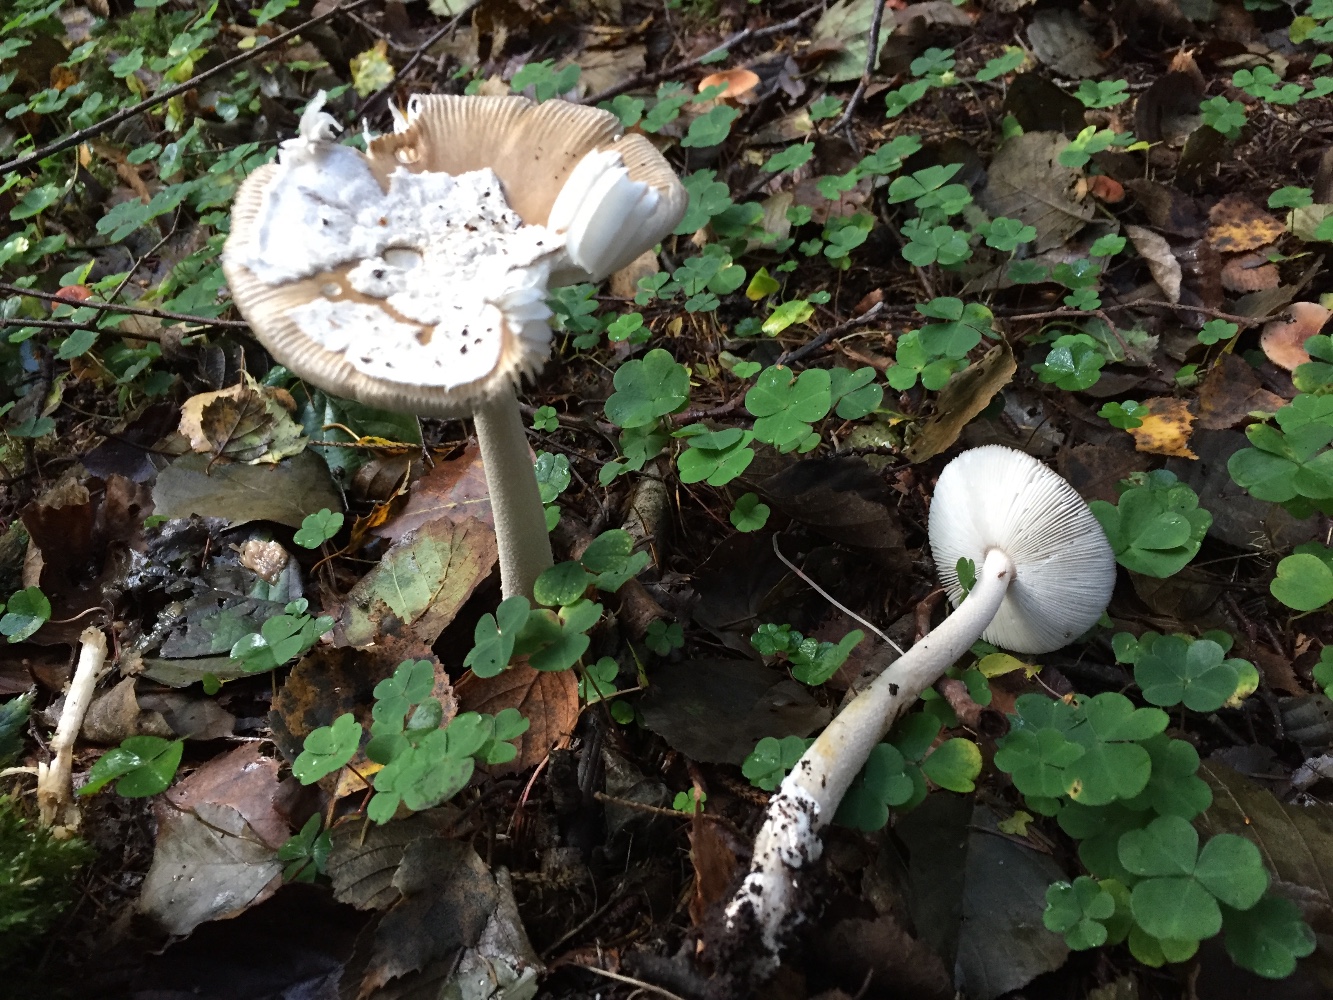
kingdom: Fungi
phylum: Basidiomycota
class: Agaricomycetes
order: Agaricales
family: Amanitaceae
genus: Amanita
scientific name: Amanita olivaceogrisea
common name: olivengrå kam-fluesvamp
